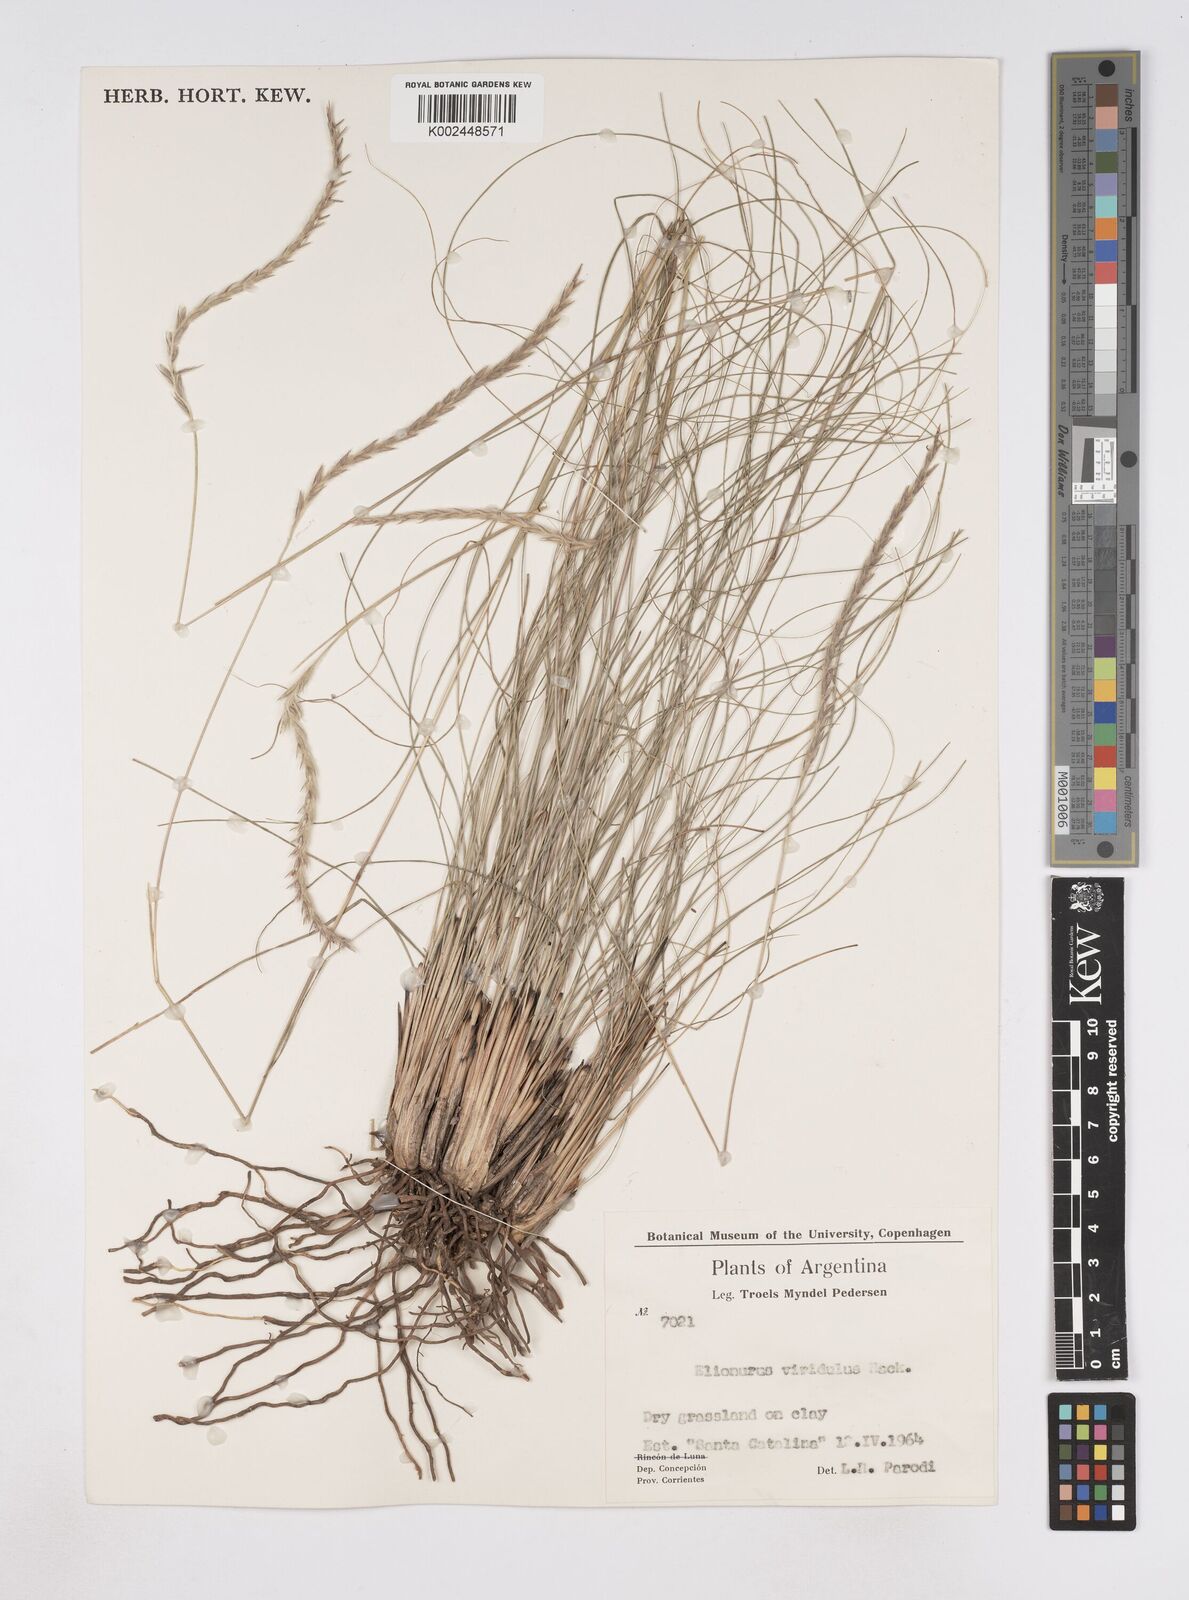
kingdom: Plantae
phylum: Tracheophyta
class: Liliopsida
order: Poales
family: Poaceae
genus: Elionurus
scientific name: Elionurus muticus
